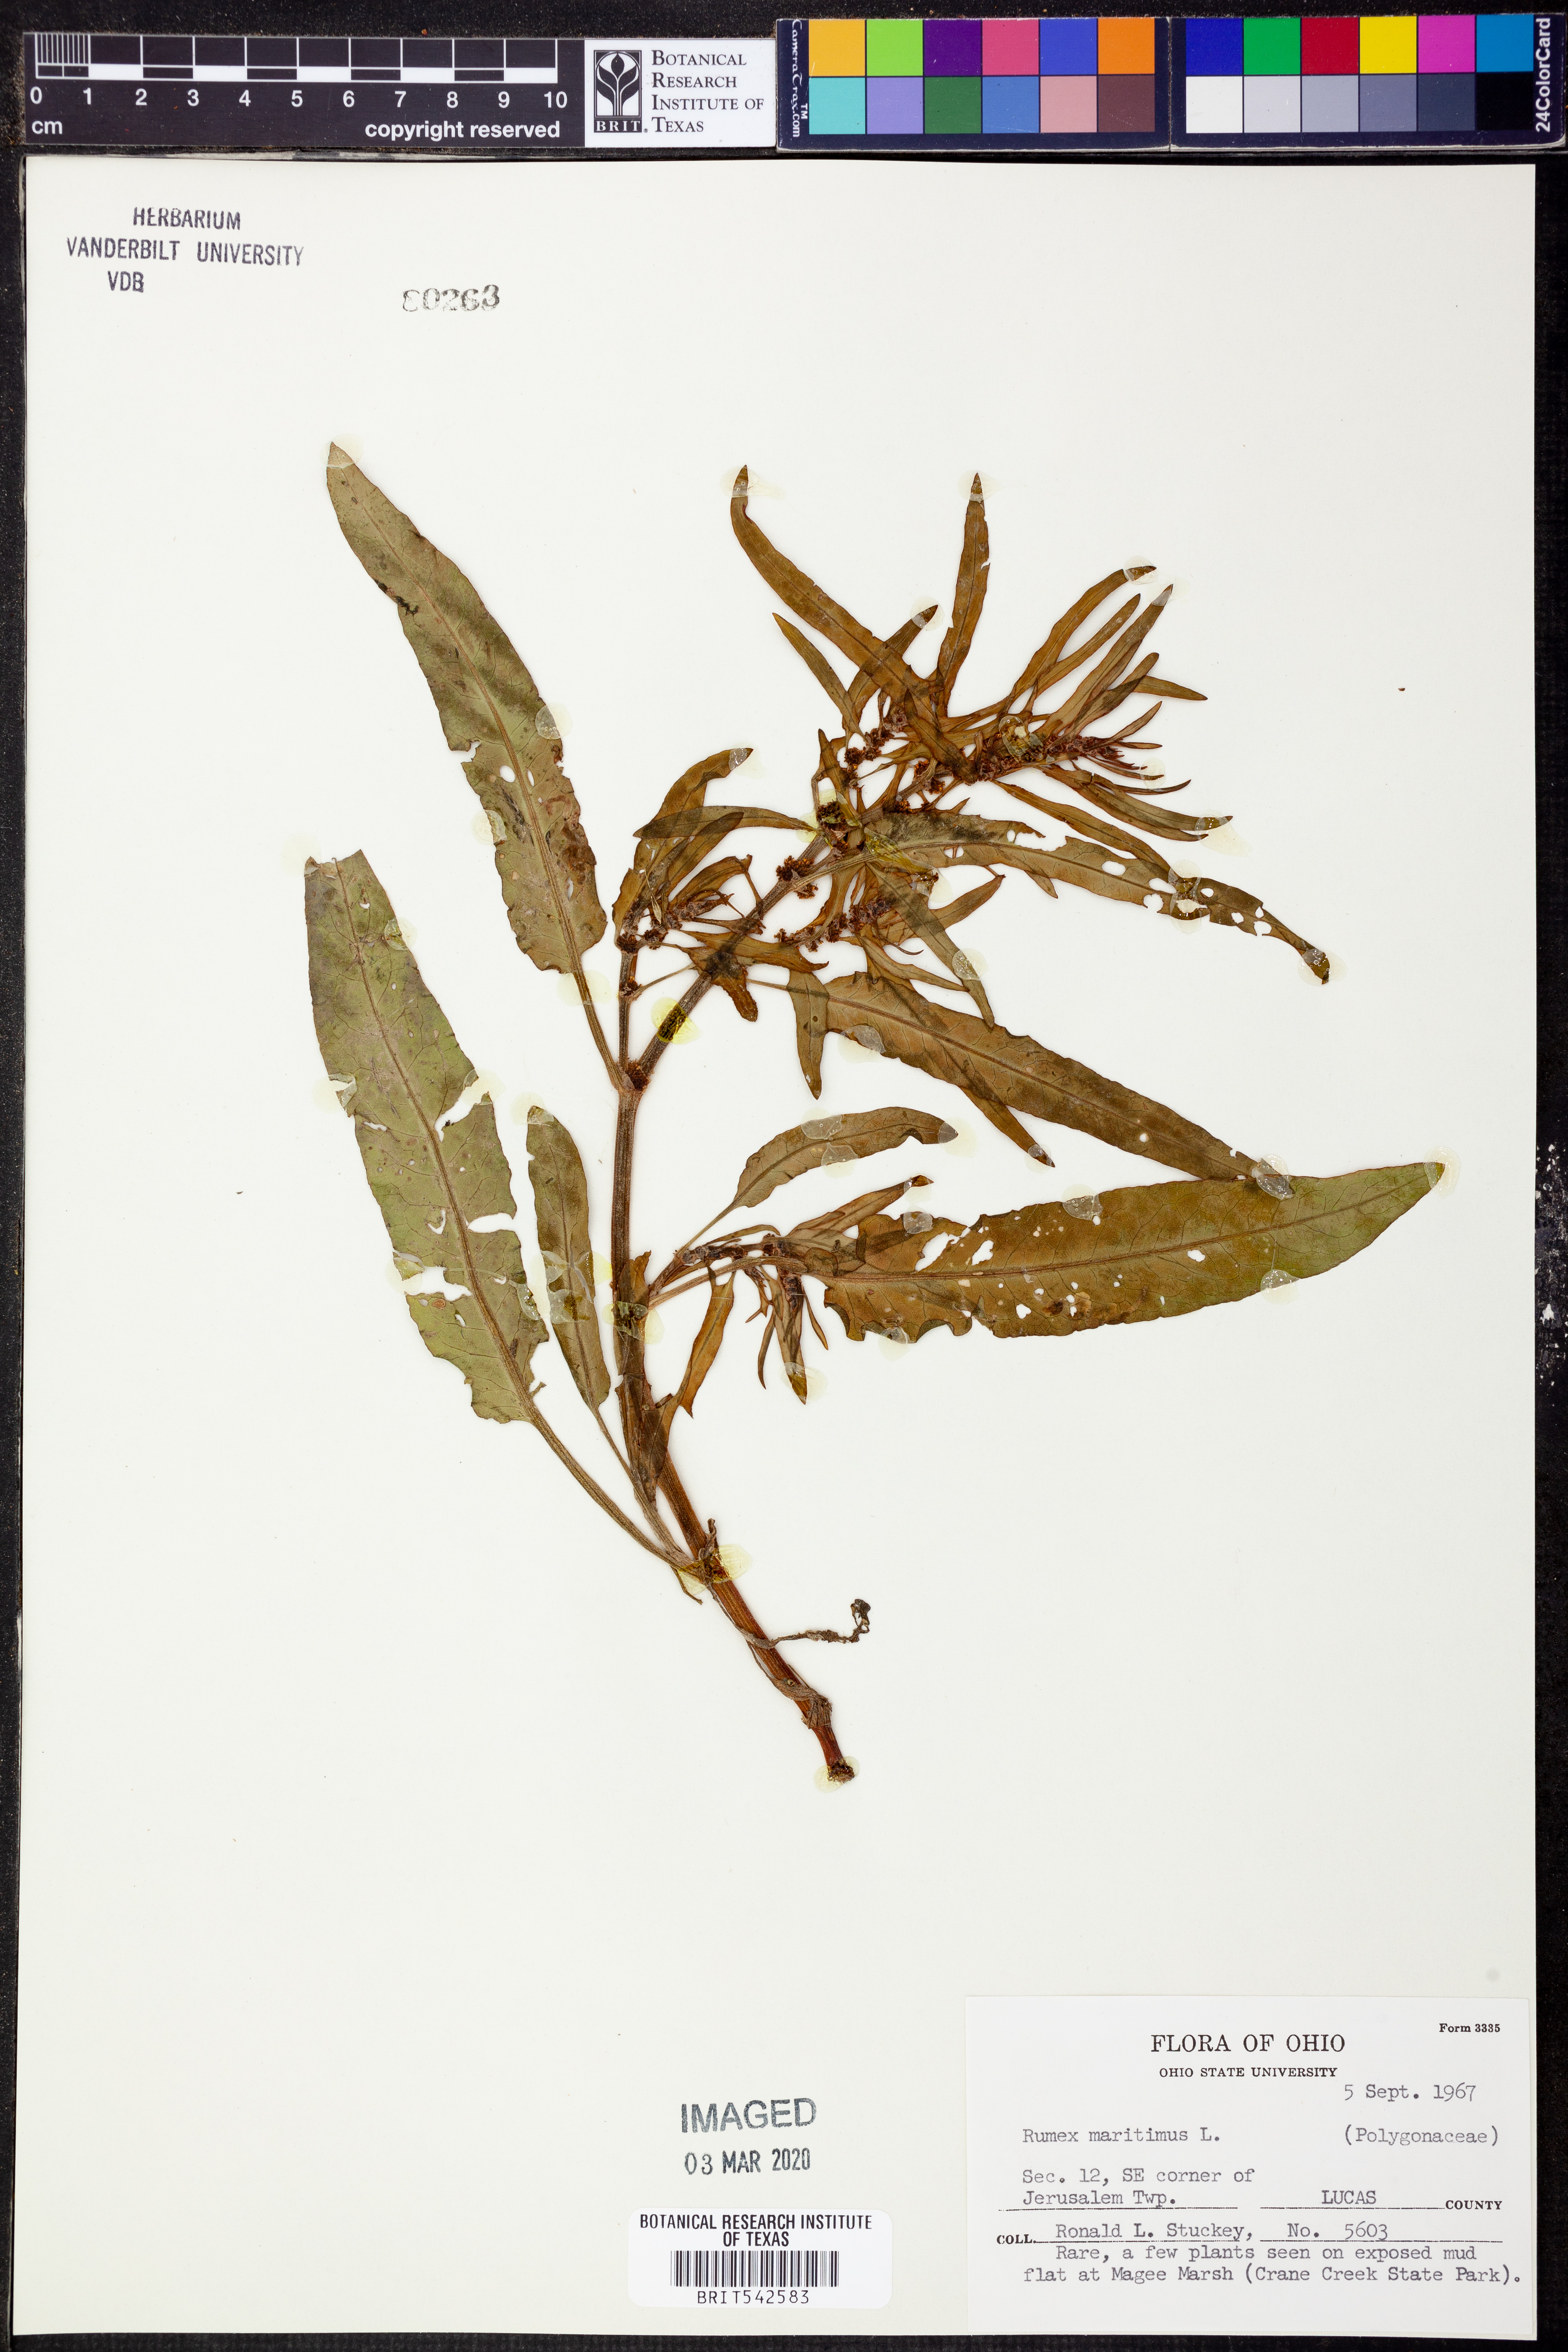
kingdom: Plantae
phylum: Tracheophyta
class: Magnoliopsida
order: Caryophyllales
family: Polygonaceae
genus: Rumex
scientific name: Rumex maritimus
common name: Golden dock
